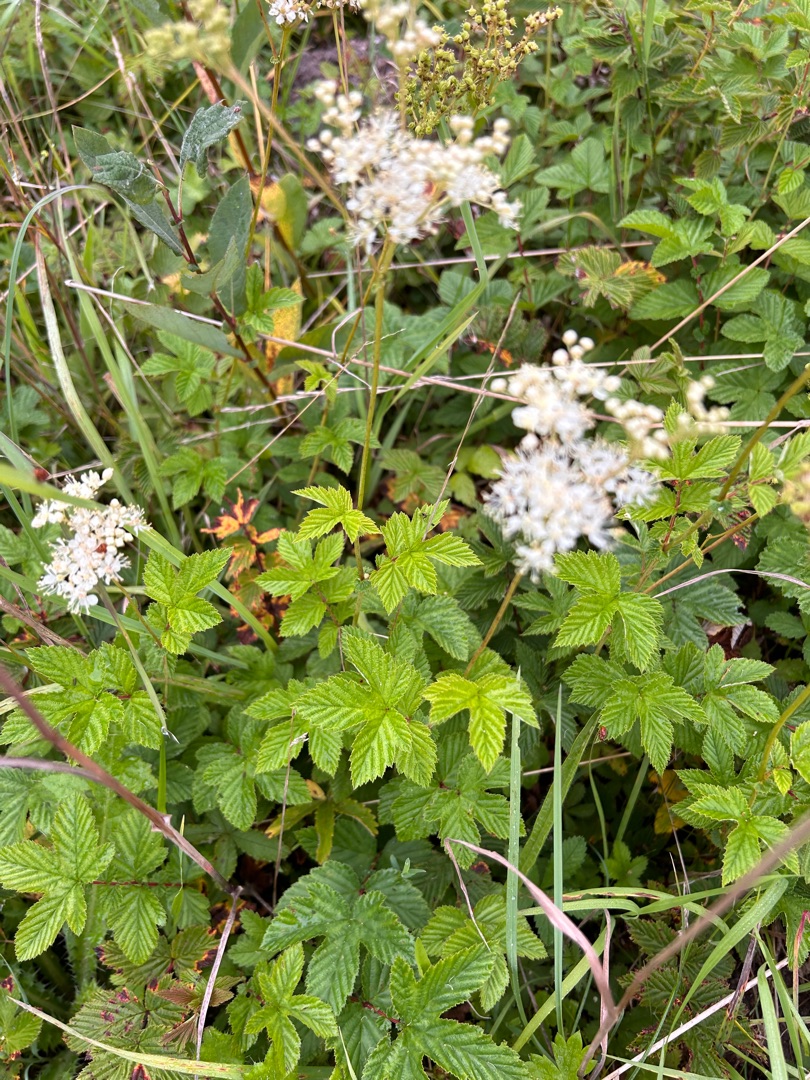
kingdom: Plantae
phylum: Tracheophyta
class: Magnoliopsida
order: Rosales
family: Rosaceae
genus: Filipendula
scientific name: Filipendula ulmaria
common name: Almindelig mjødurt
